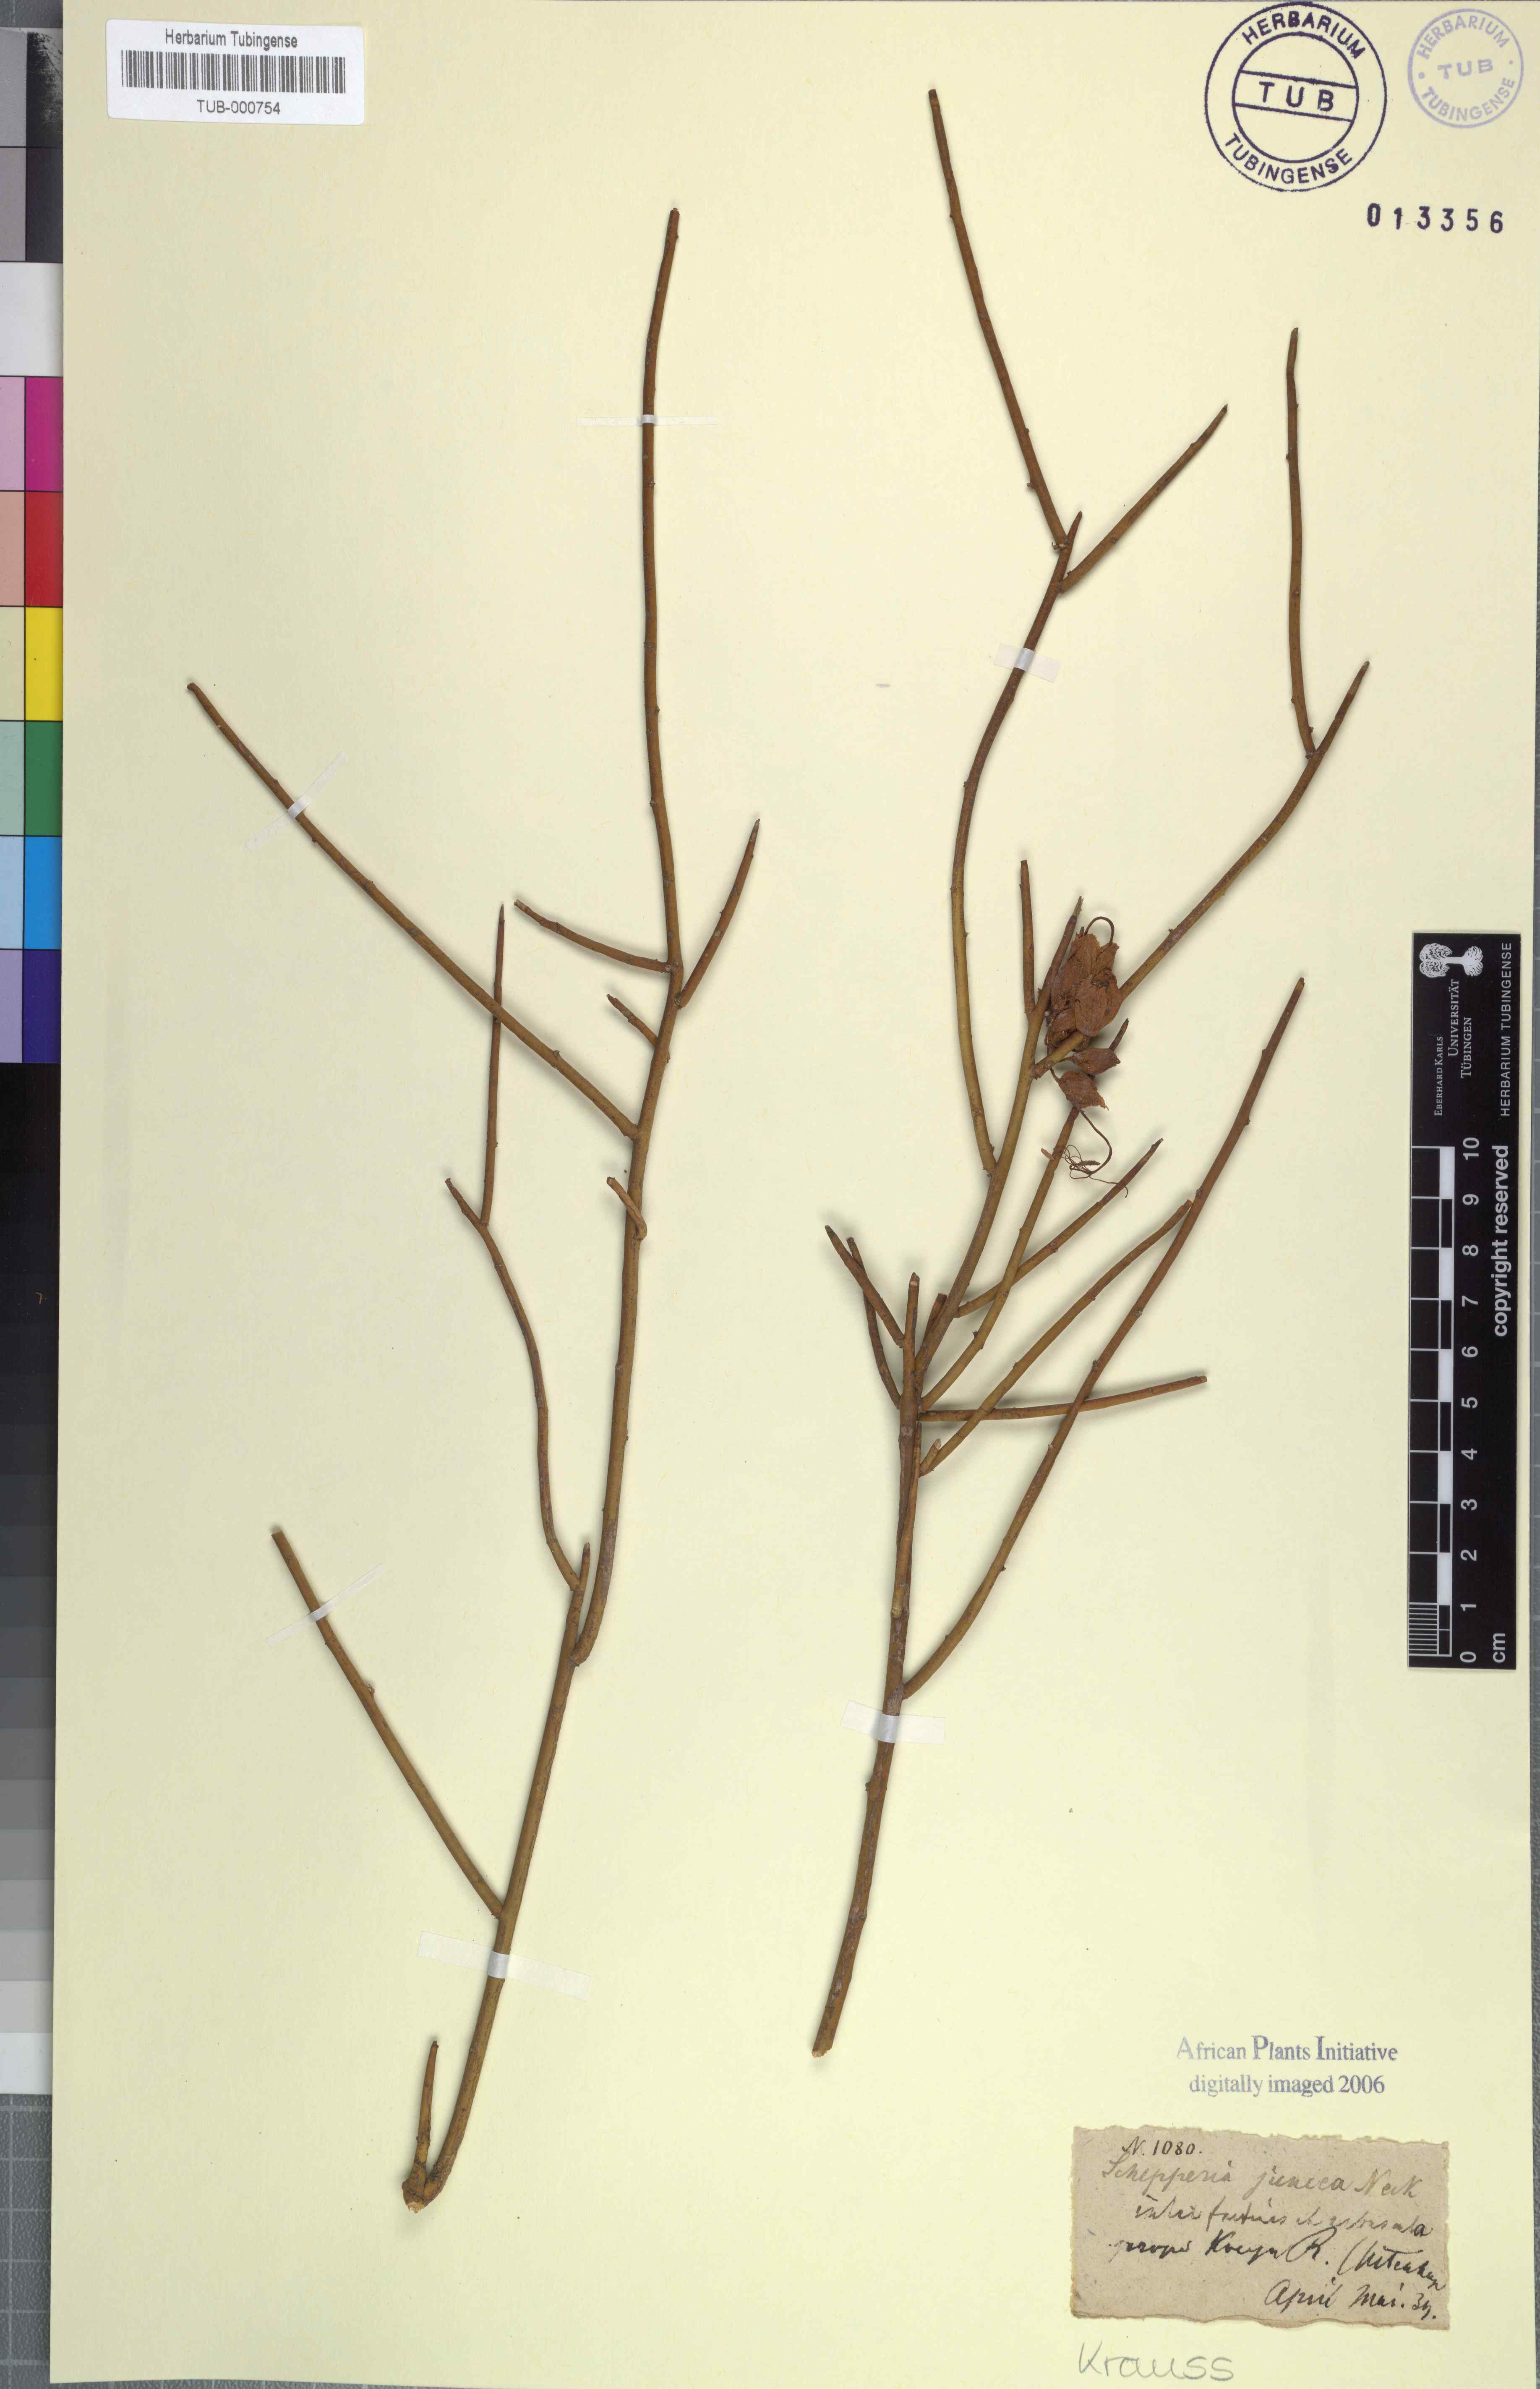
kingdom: Plantae
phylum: Tracheophyta
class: Magnoliopsida
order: Brassicales
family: Capparaceae
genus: Cadaba
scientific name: Cadaba aphylla
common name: Black storm
